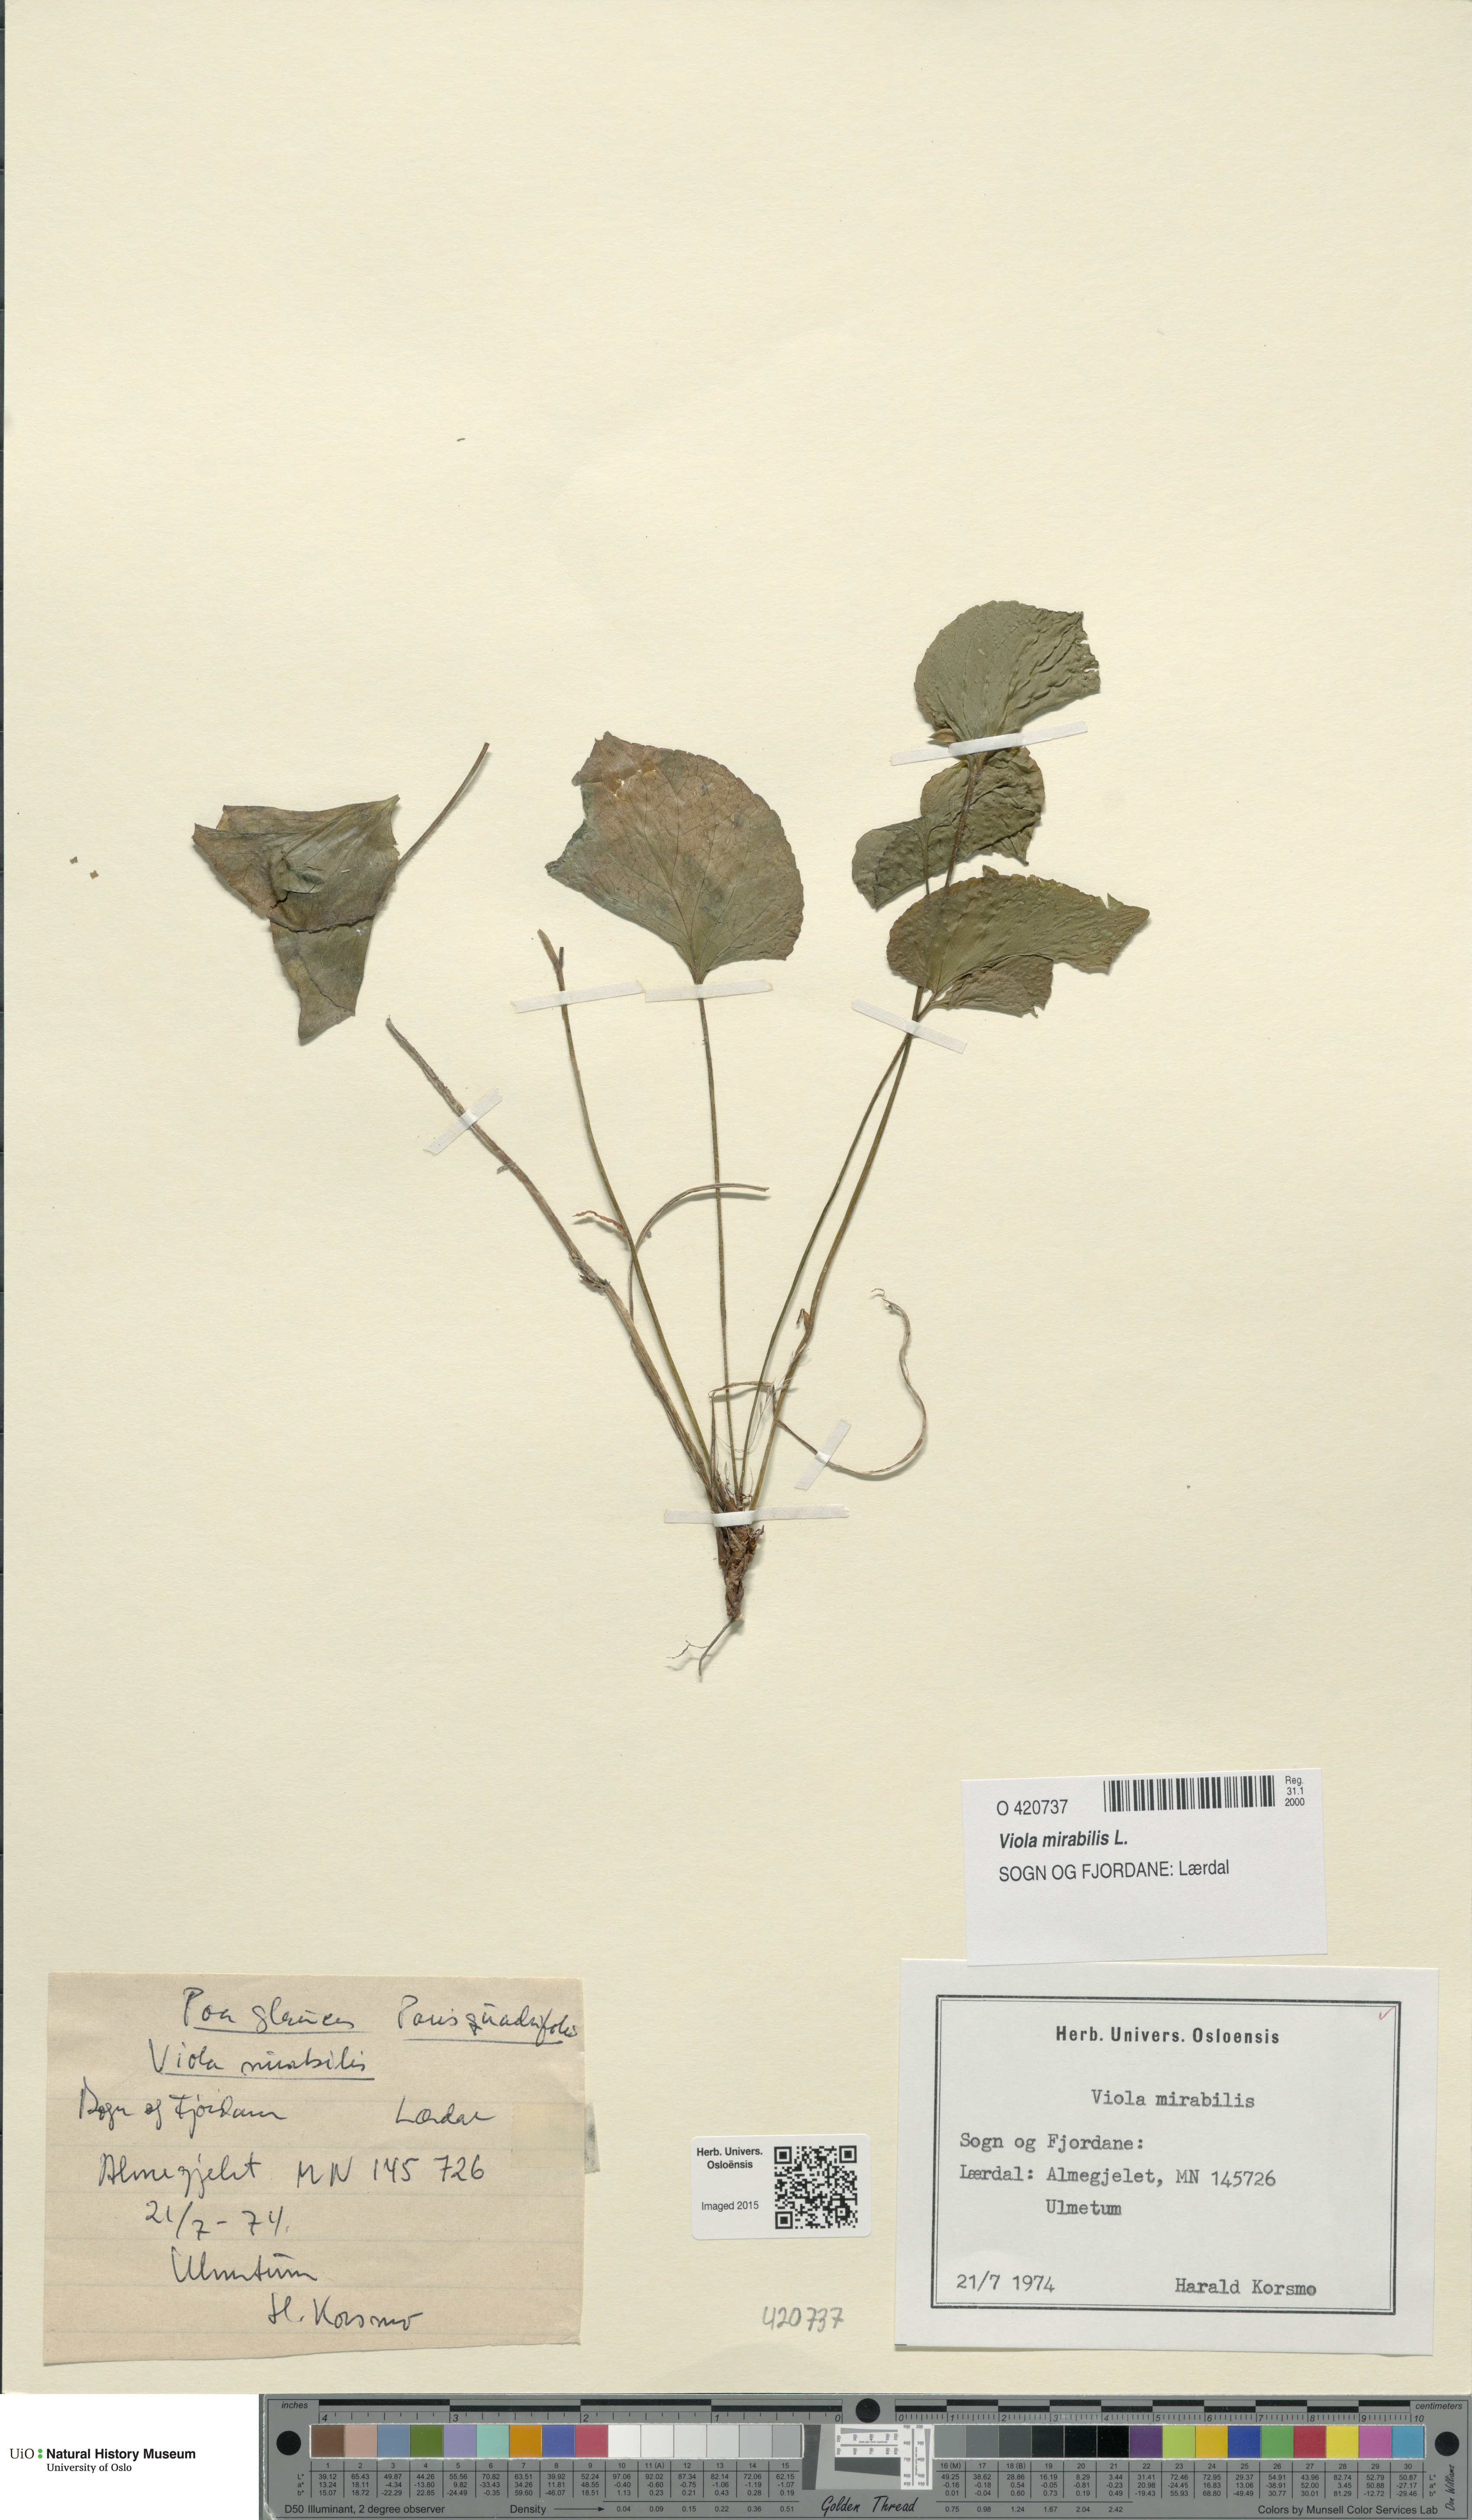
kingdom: Plantae
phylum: Tracheophyta
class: Magnoliopsida
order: Malpighiales
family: Violaceae
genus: Viola
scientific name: Viola mirabilis
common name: Wonder violet
